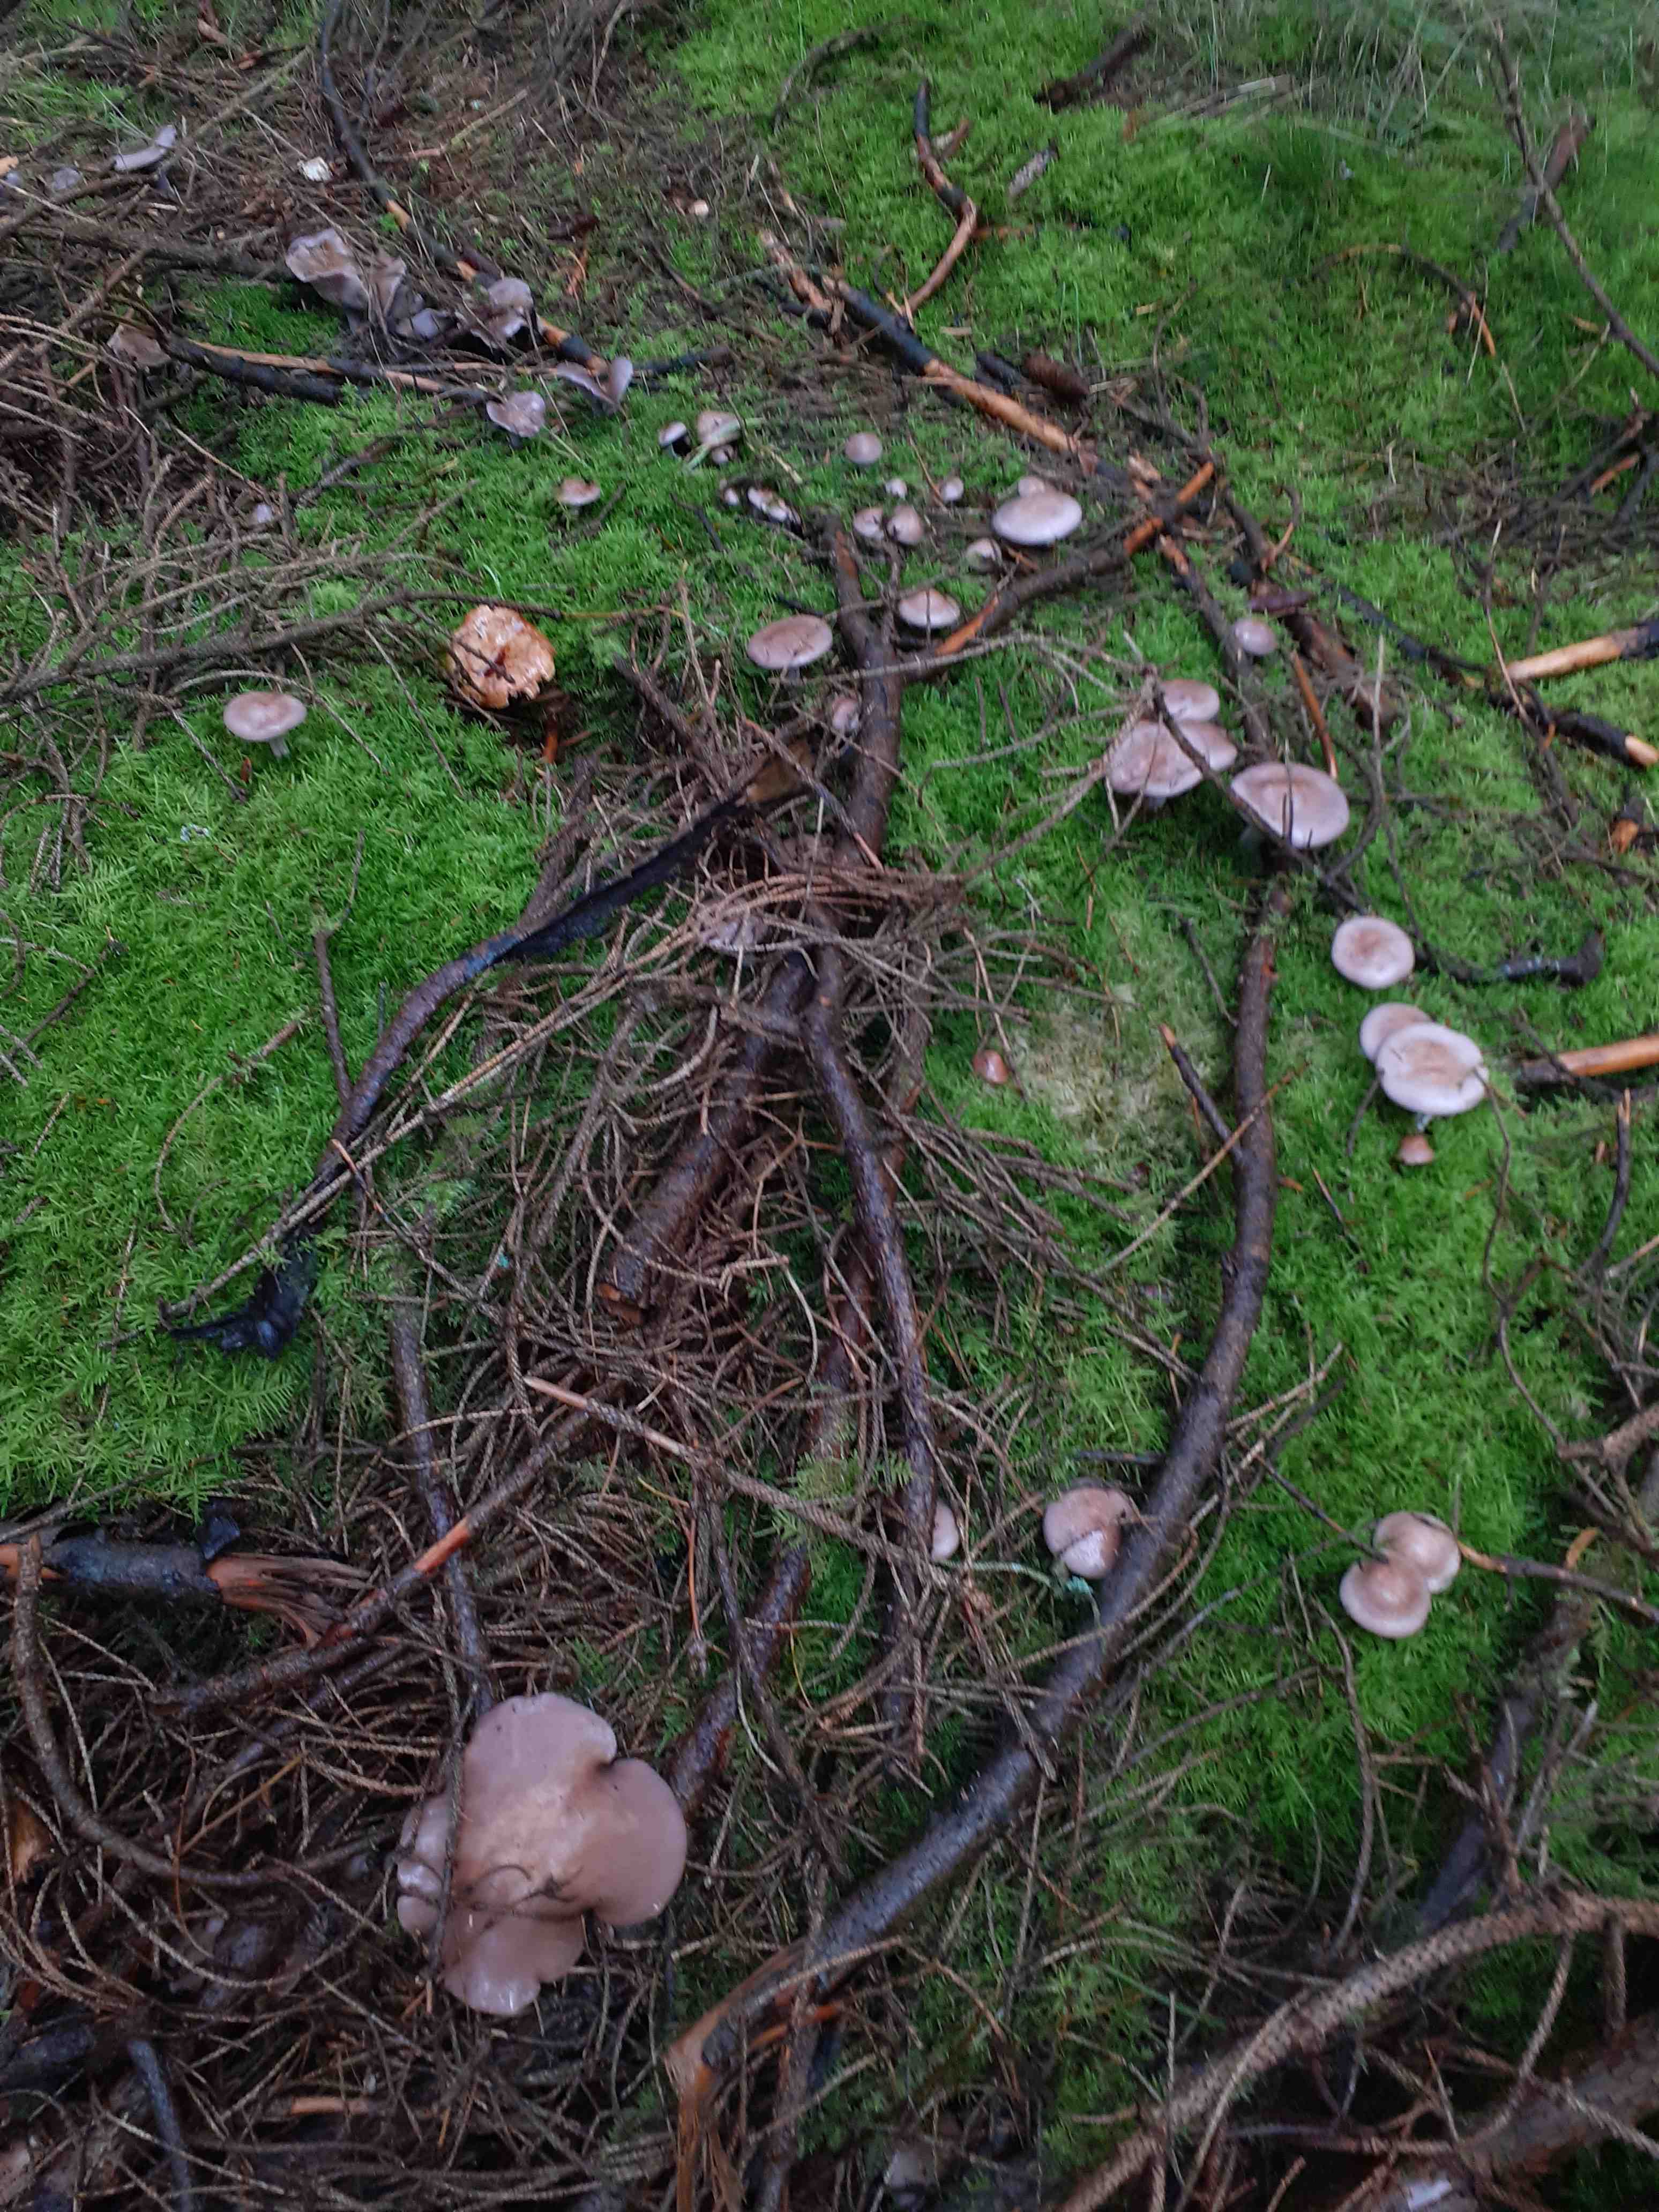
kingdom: Fungi
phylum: Basidiomycota
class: Agaricomycetes
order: Agaricales
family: Tricholomataceae
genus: Lepista
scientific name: Lepista nuda
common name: violet hekseringshat
